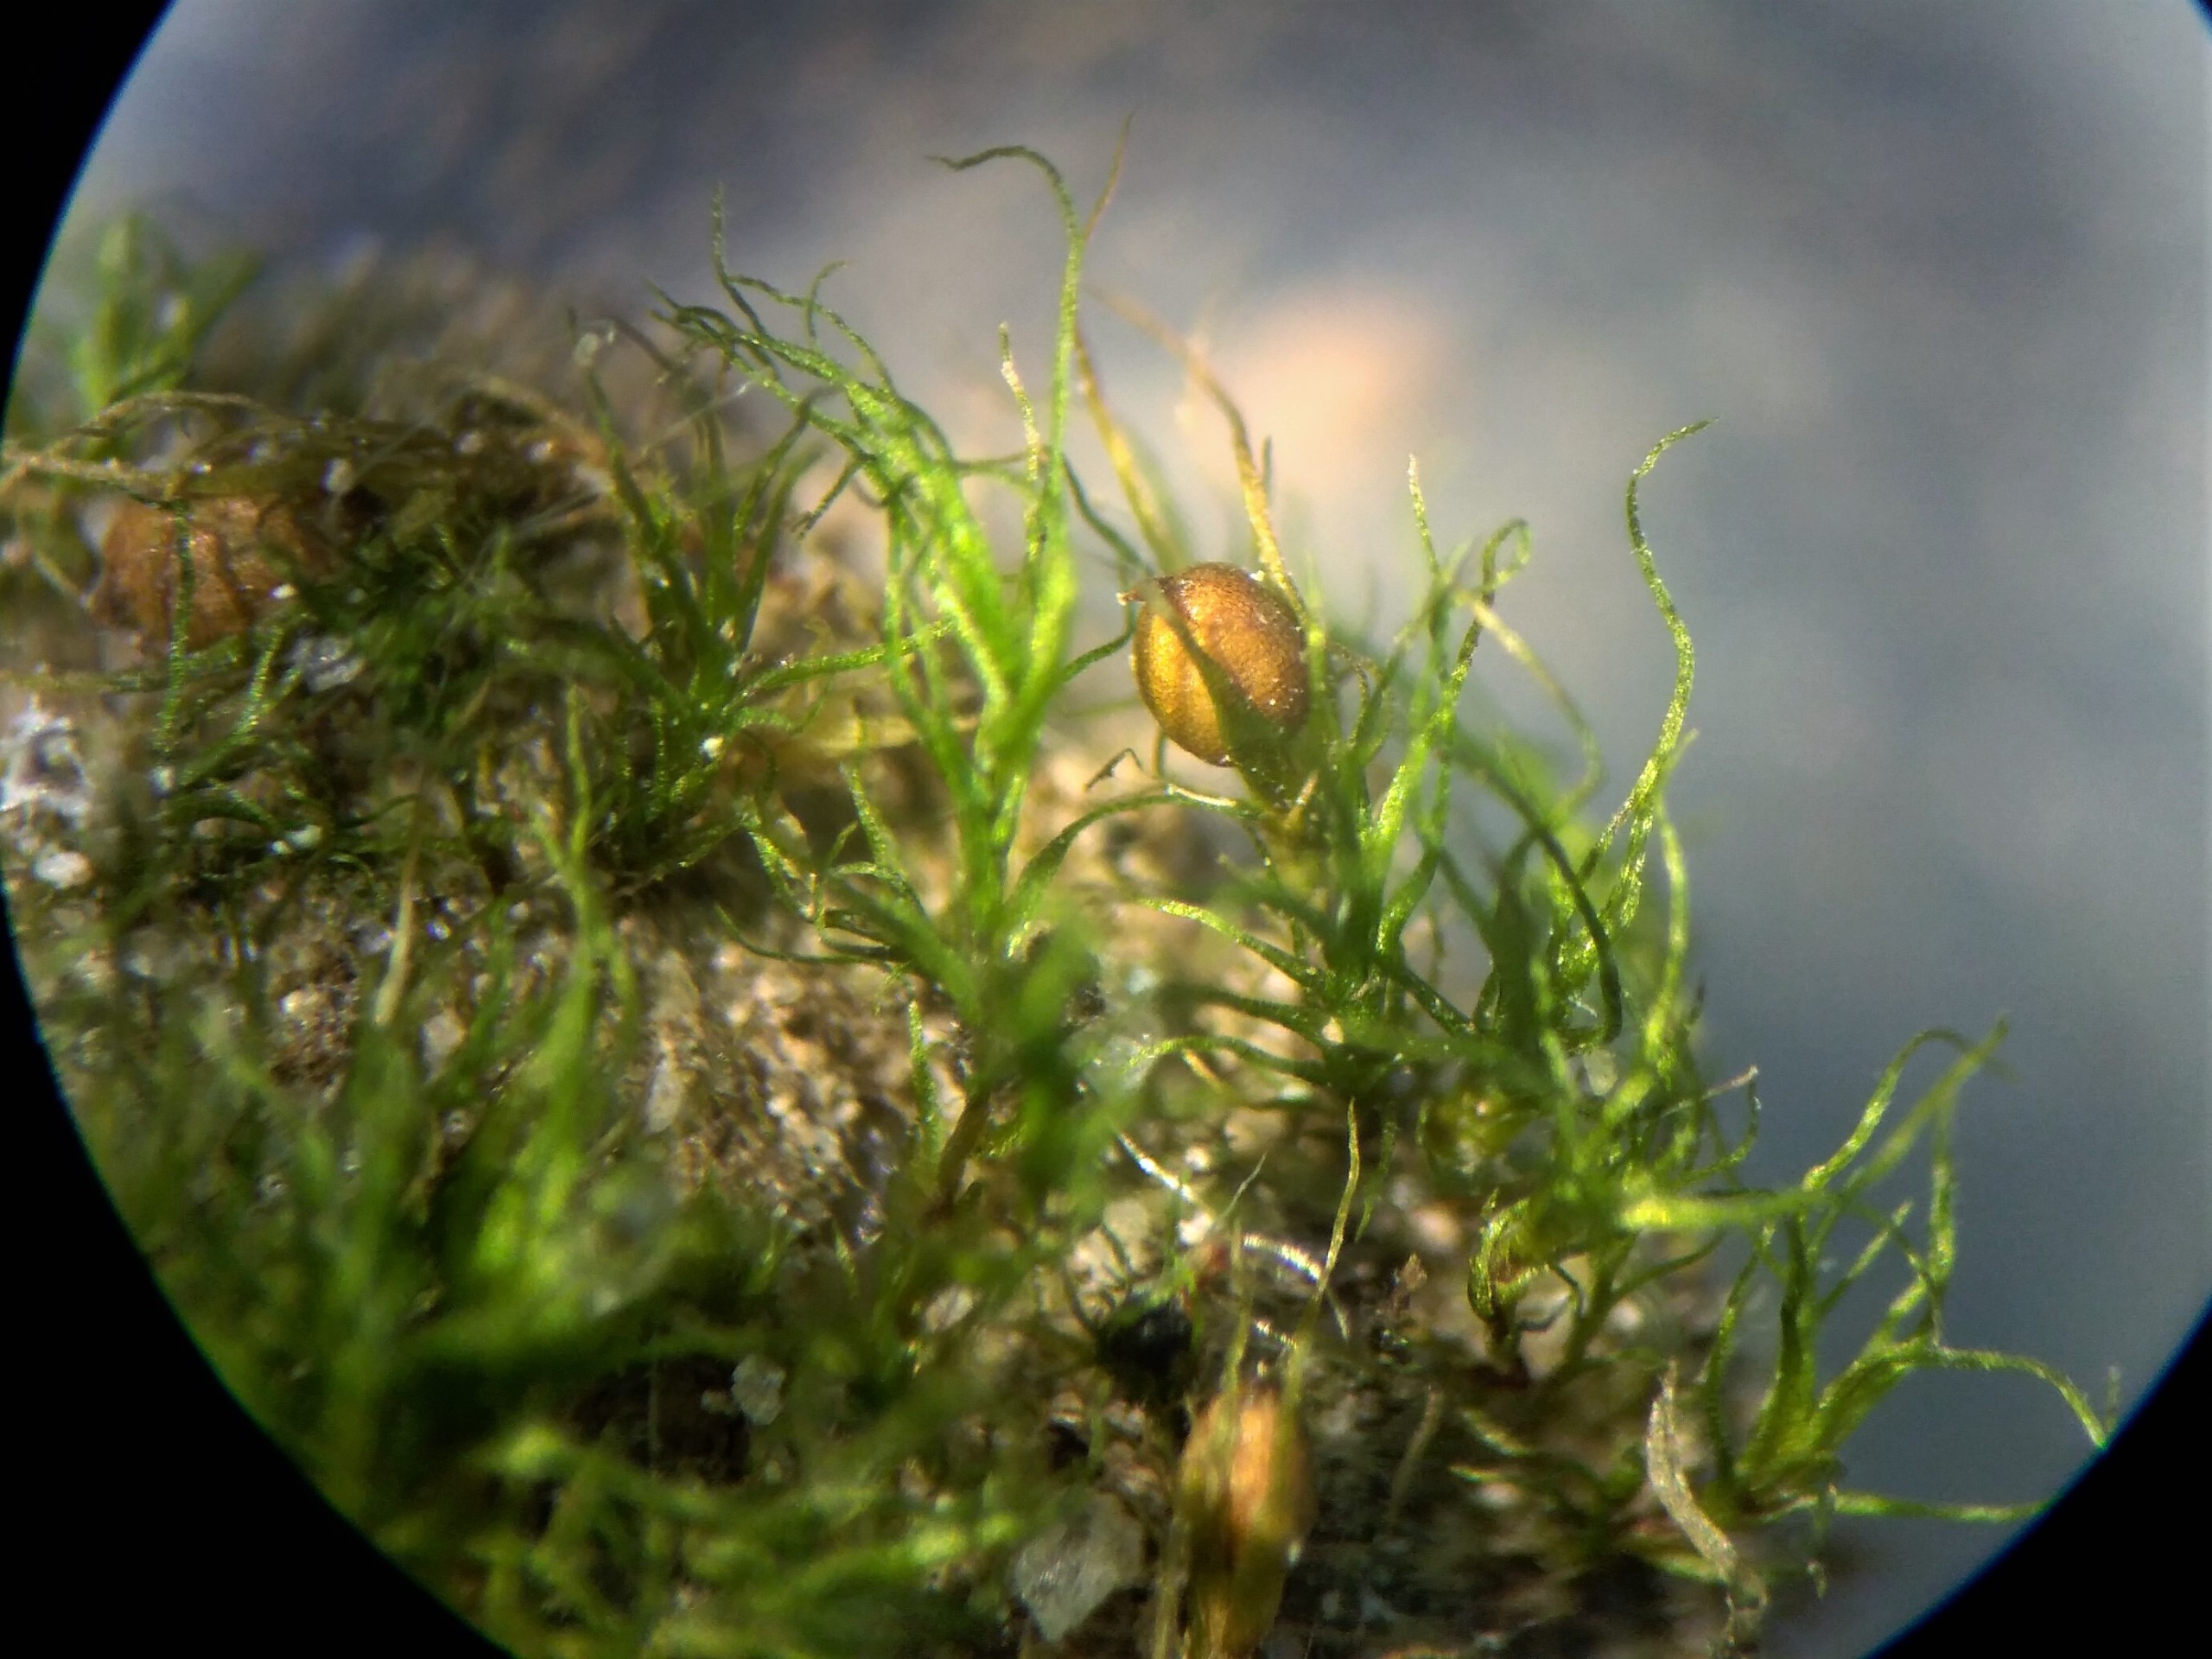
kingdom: Plantae
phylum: Bryophyta
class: Bryopsida
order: Dicranales
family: Ditrichaceae
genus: Pleuridium
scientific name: Pleuridium acuminatum
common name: Siddende sylbladsmos
